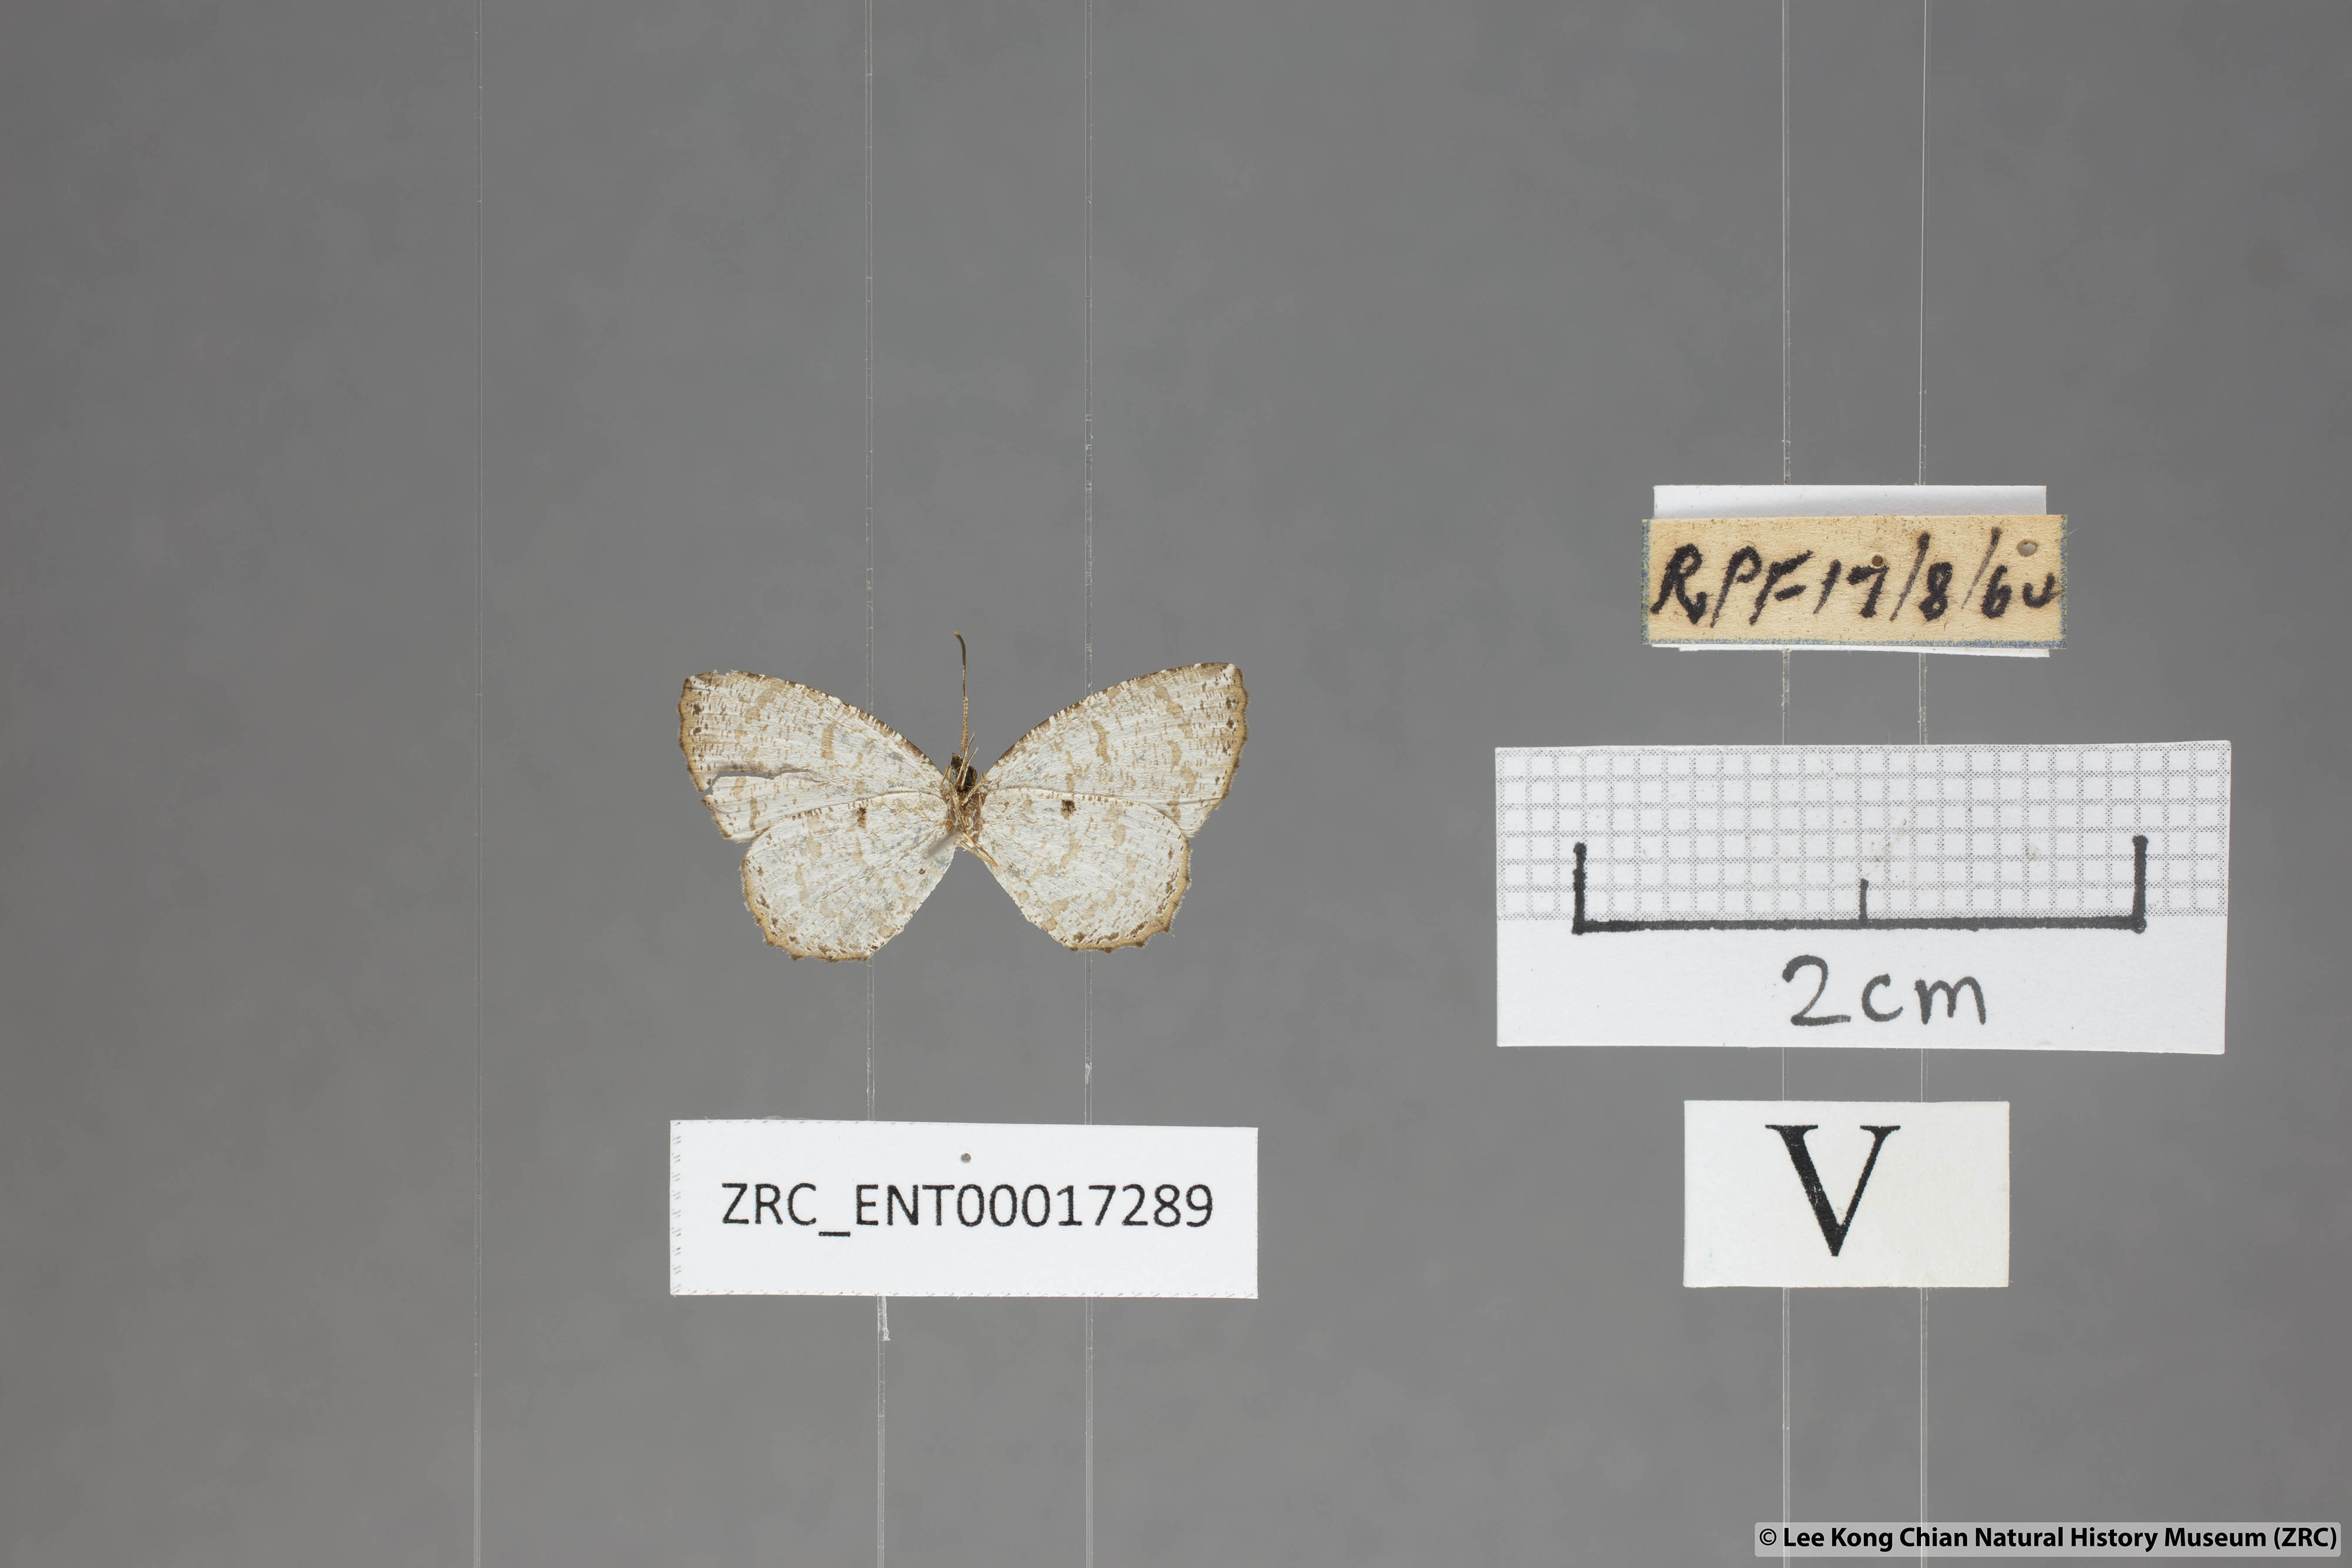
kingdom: Animalia
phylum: Arthropoda
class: Insecta
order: Lepidoptera
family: Lycaenidae
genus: Allotinus
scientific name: Allotinus substrigosa
